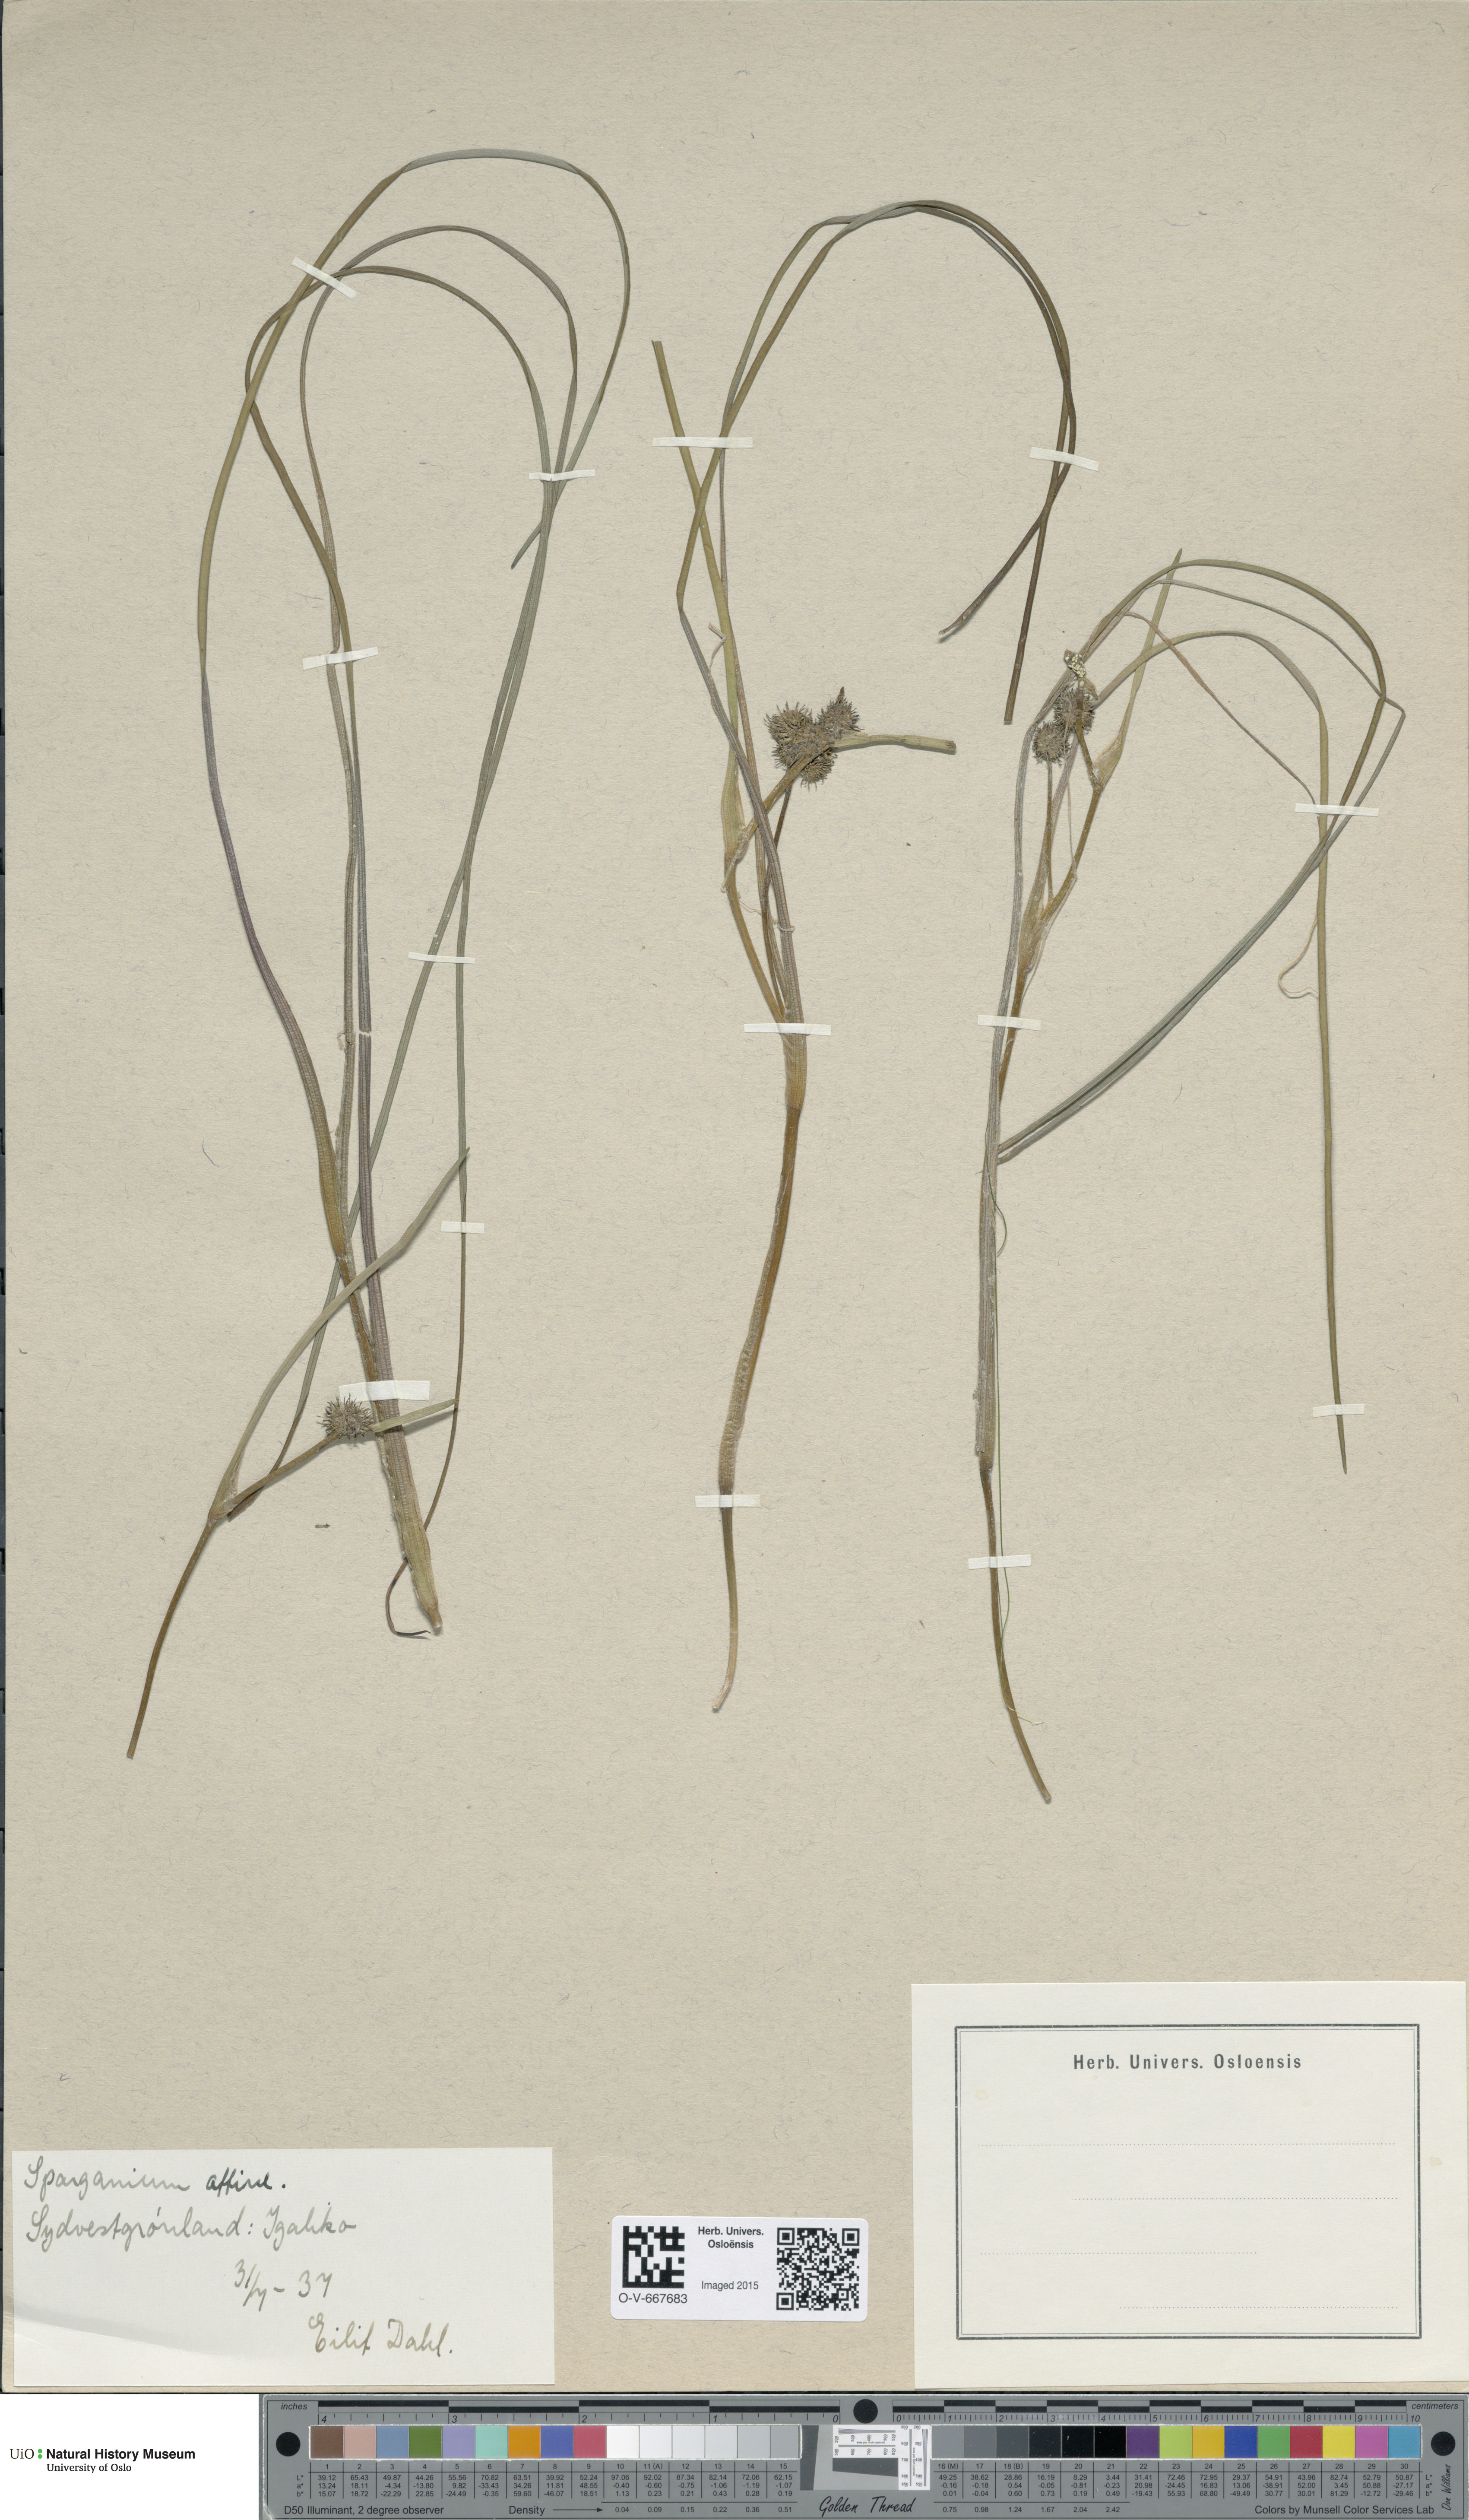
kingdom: Plantae
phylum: Tracheophyta
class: Liliopsida
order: Poales
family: Typhaceae
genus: Sparganium
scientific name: Sparganium angustifolium
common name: Floating bur-reed
